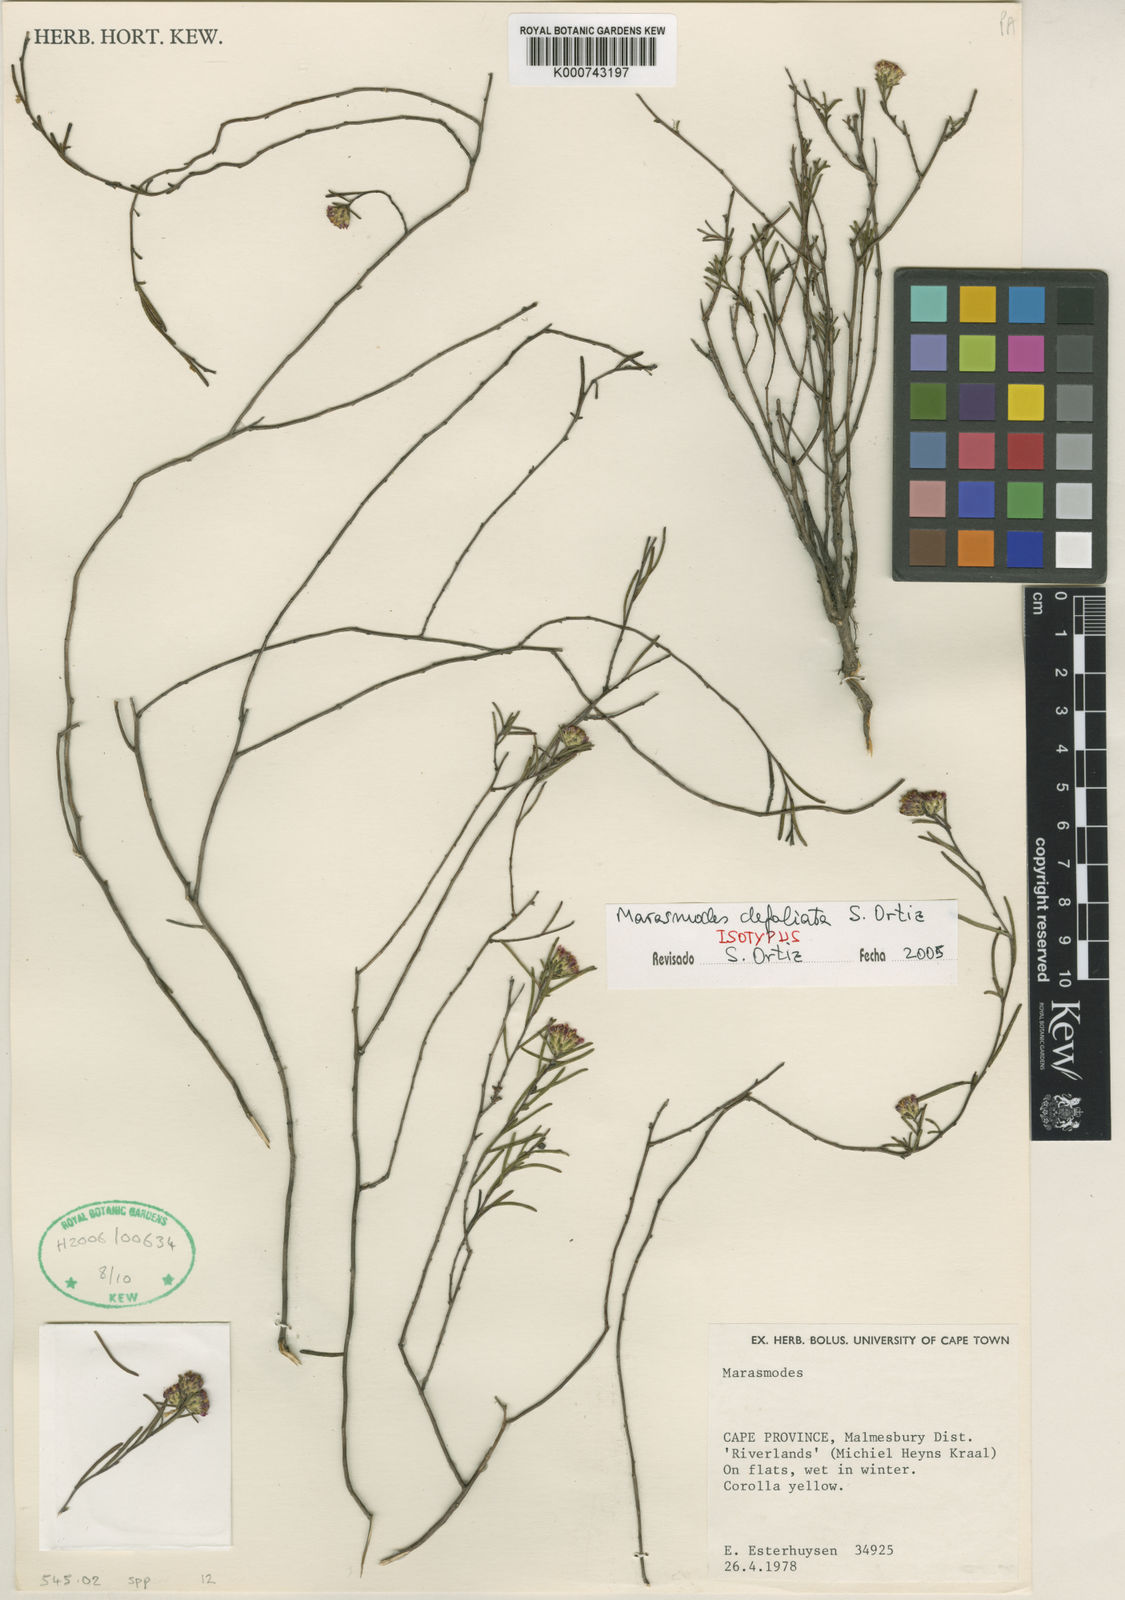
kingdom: Plantae
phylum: Tracheophyta
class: Magnoliopsida
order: Asterales
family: Asteraceae
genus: Marasmodes
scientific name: Marasmodes defoliata
